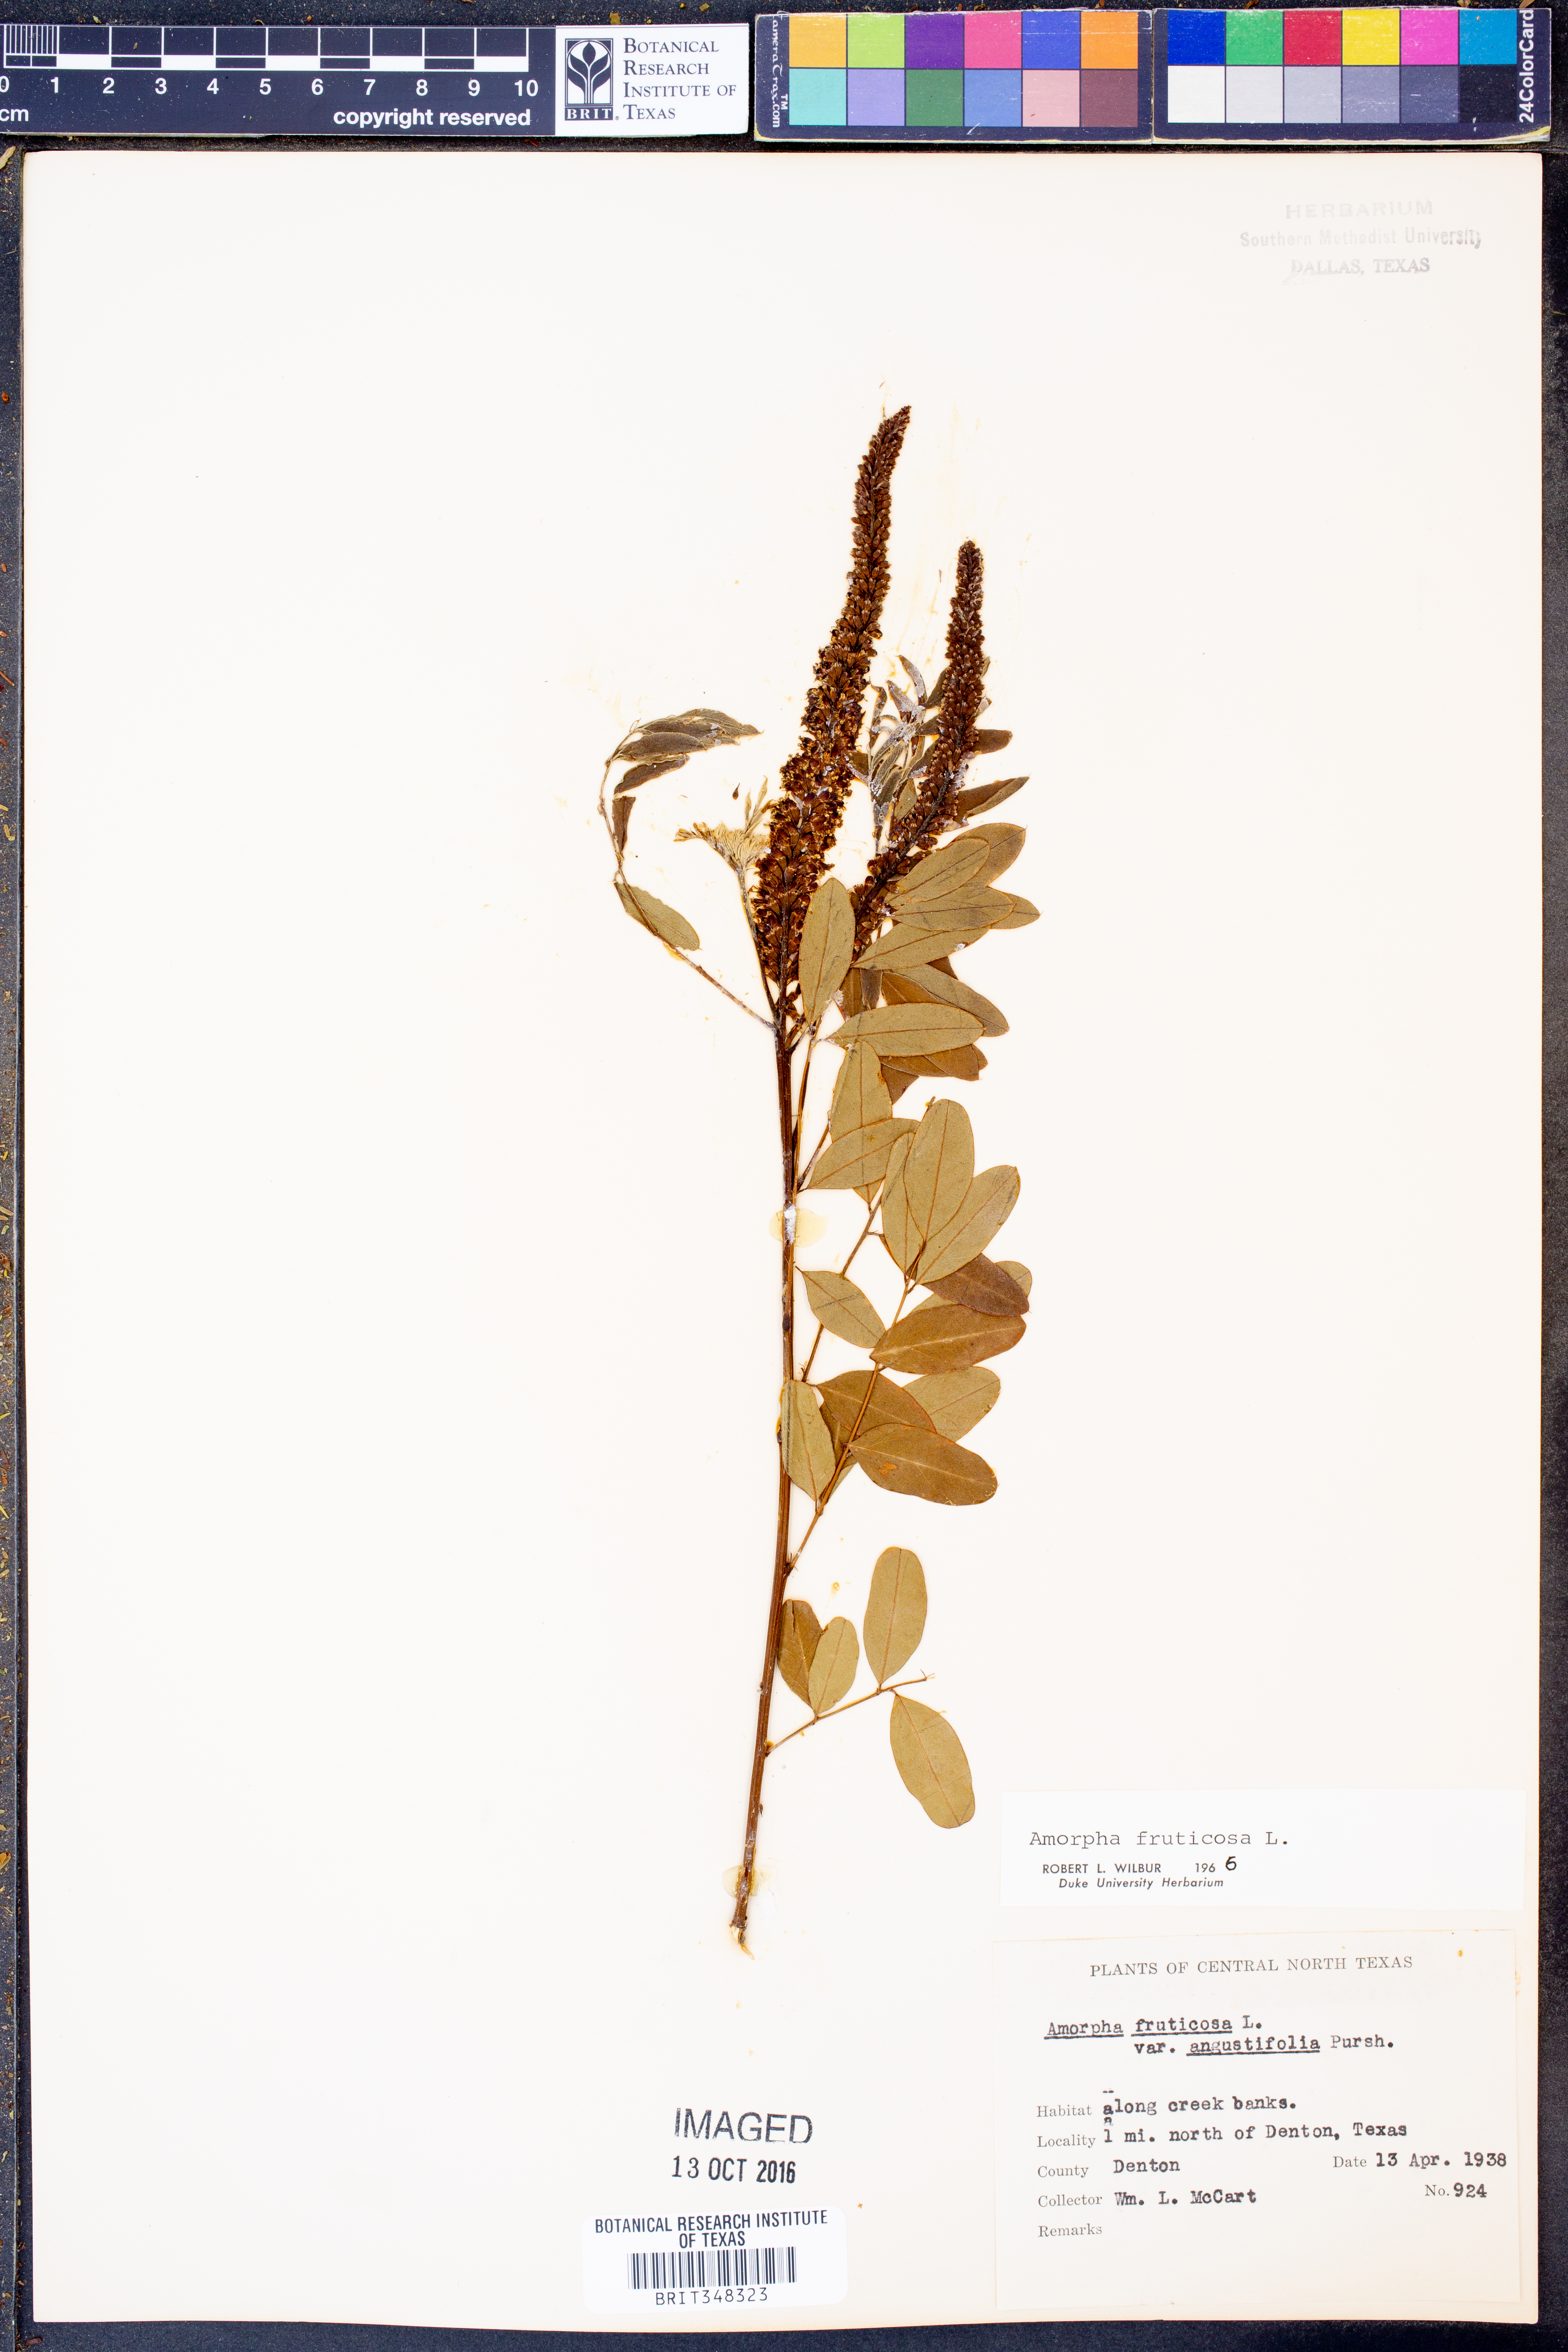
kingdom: Plantae
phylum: Tracheophyta
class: Magnoliopsida
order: Fabales
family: Fabaceae
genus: Amorpha
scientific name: Amorpha fruticosa
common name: False indigo
